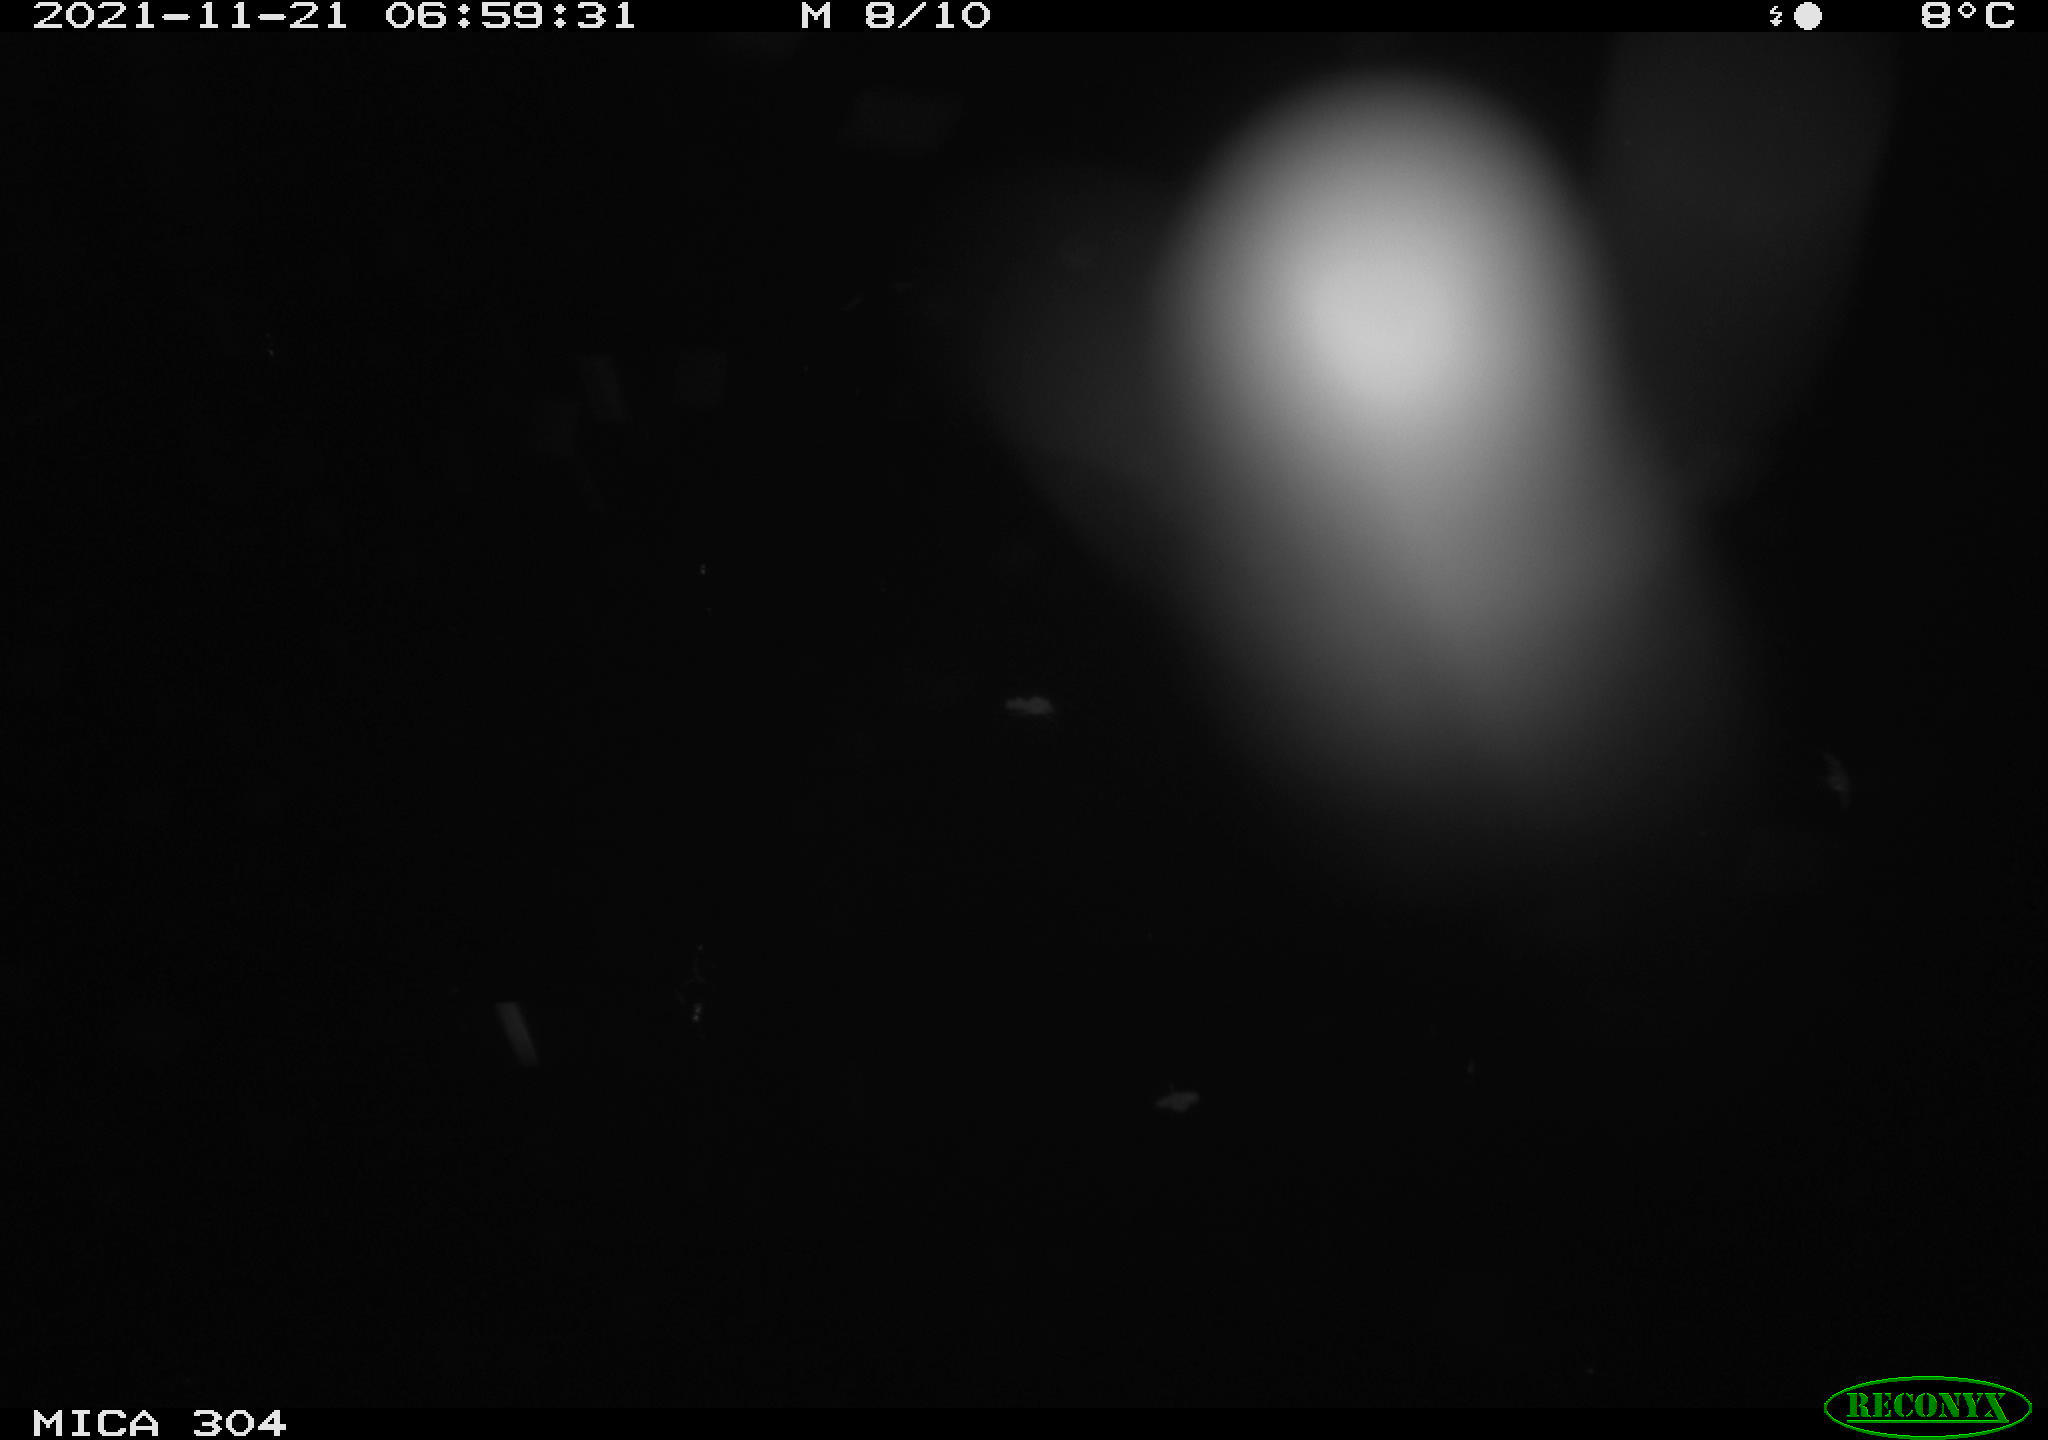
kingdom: Animalia
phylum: Chordata
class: Aves
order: Gruiformes
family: Rallidae
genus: Fulica
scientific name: Fulica atra
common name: Eurasian coot
